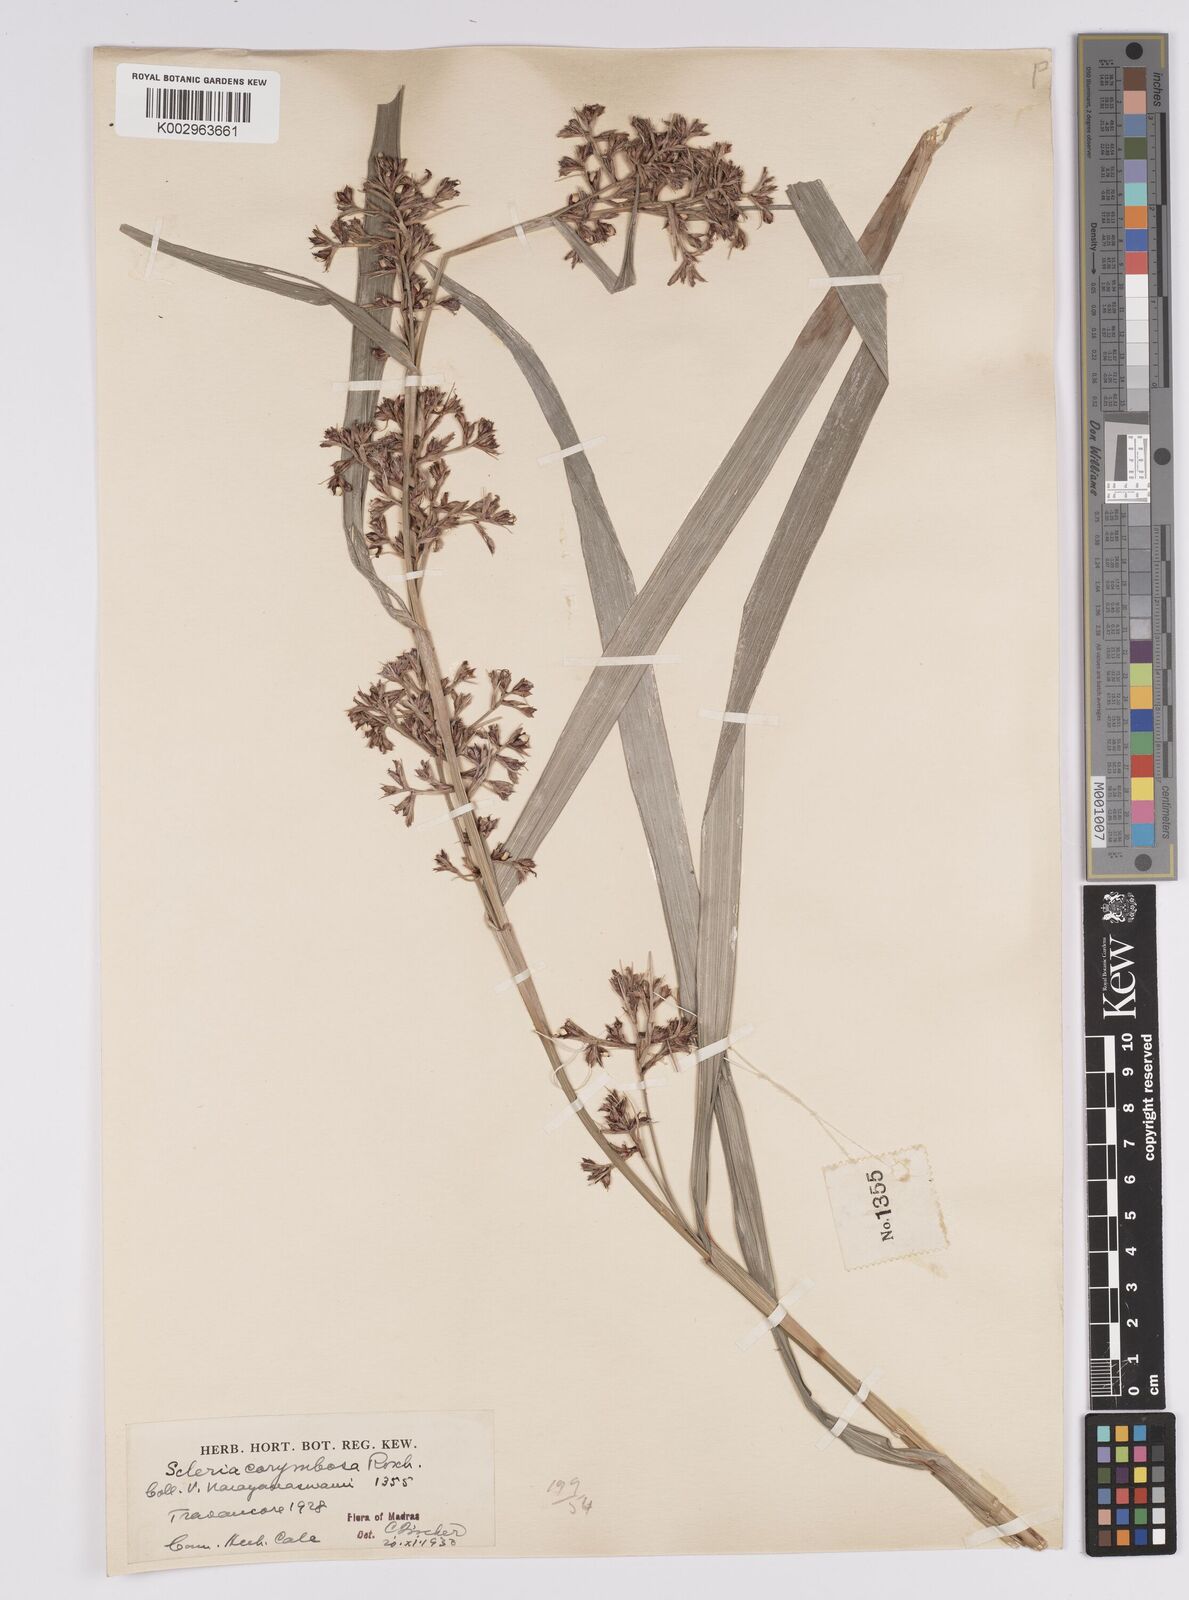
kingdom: Plantae
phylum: Tracheophyta
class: Liliopsida
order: Poales
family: Cyperaceae
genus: Scleria
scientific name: Scleria corymbosa
